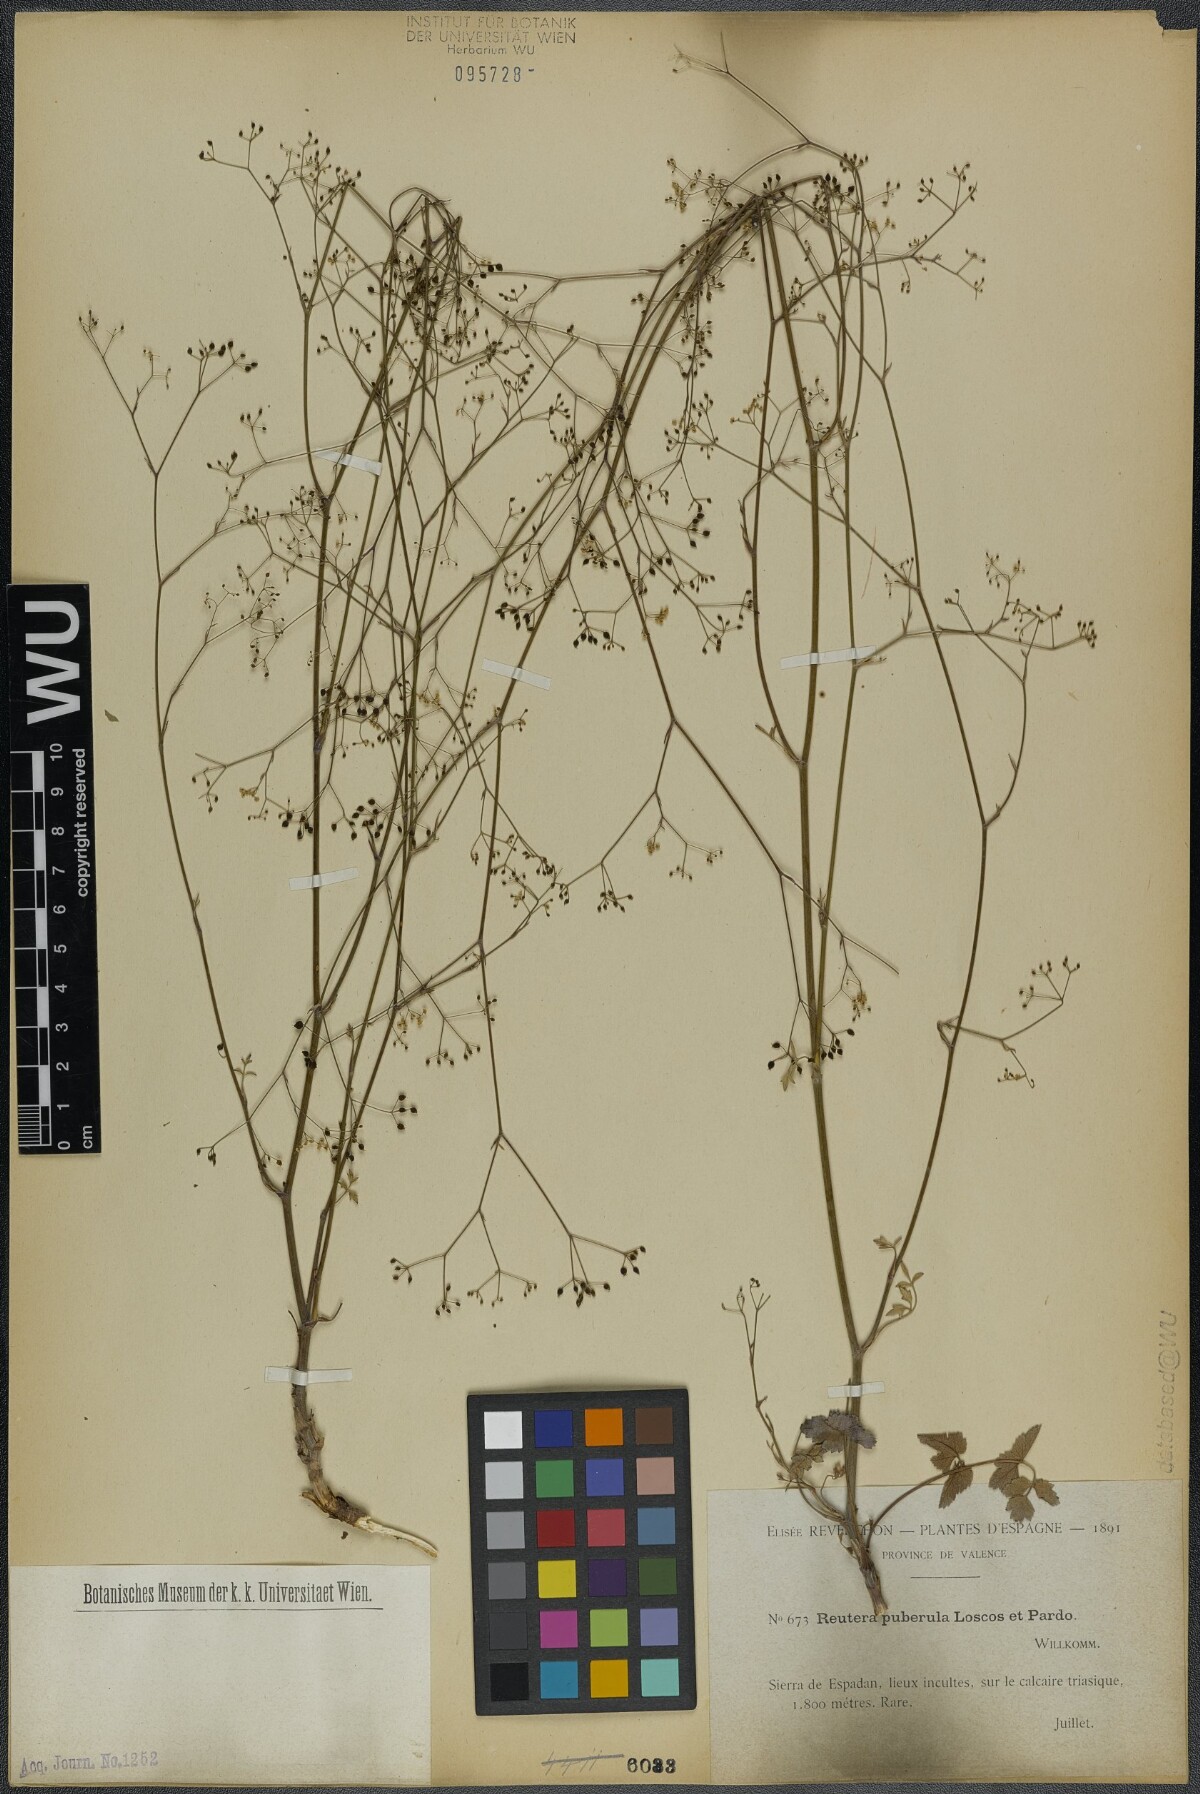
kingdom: Plantae
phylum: Tracheophyta
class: Magnoliopsida
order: Apiales
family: Apiaceae
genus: Pimpinella
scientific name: Pimpinella propinqua
